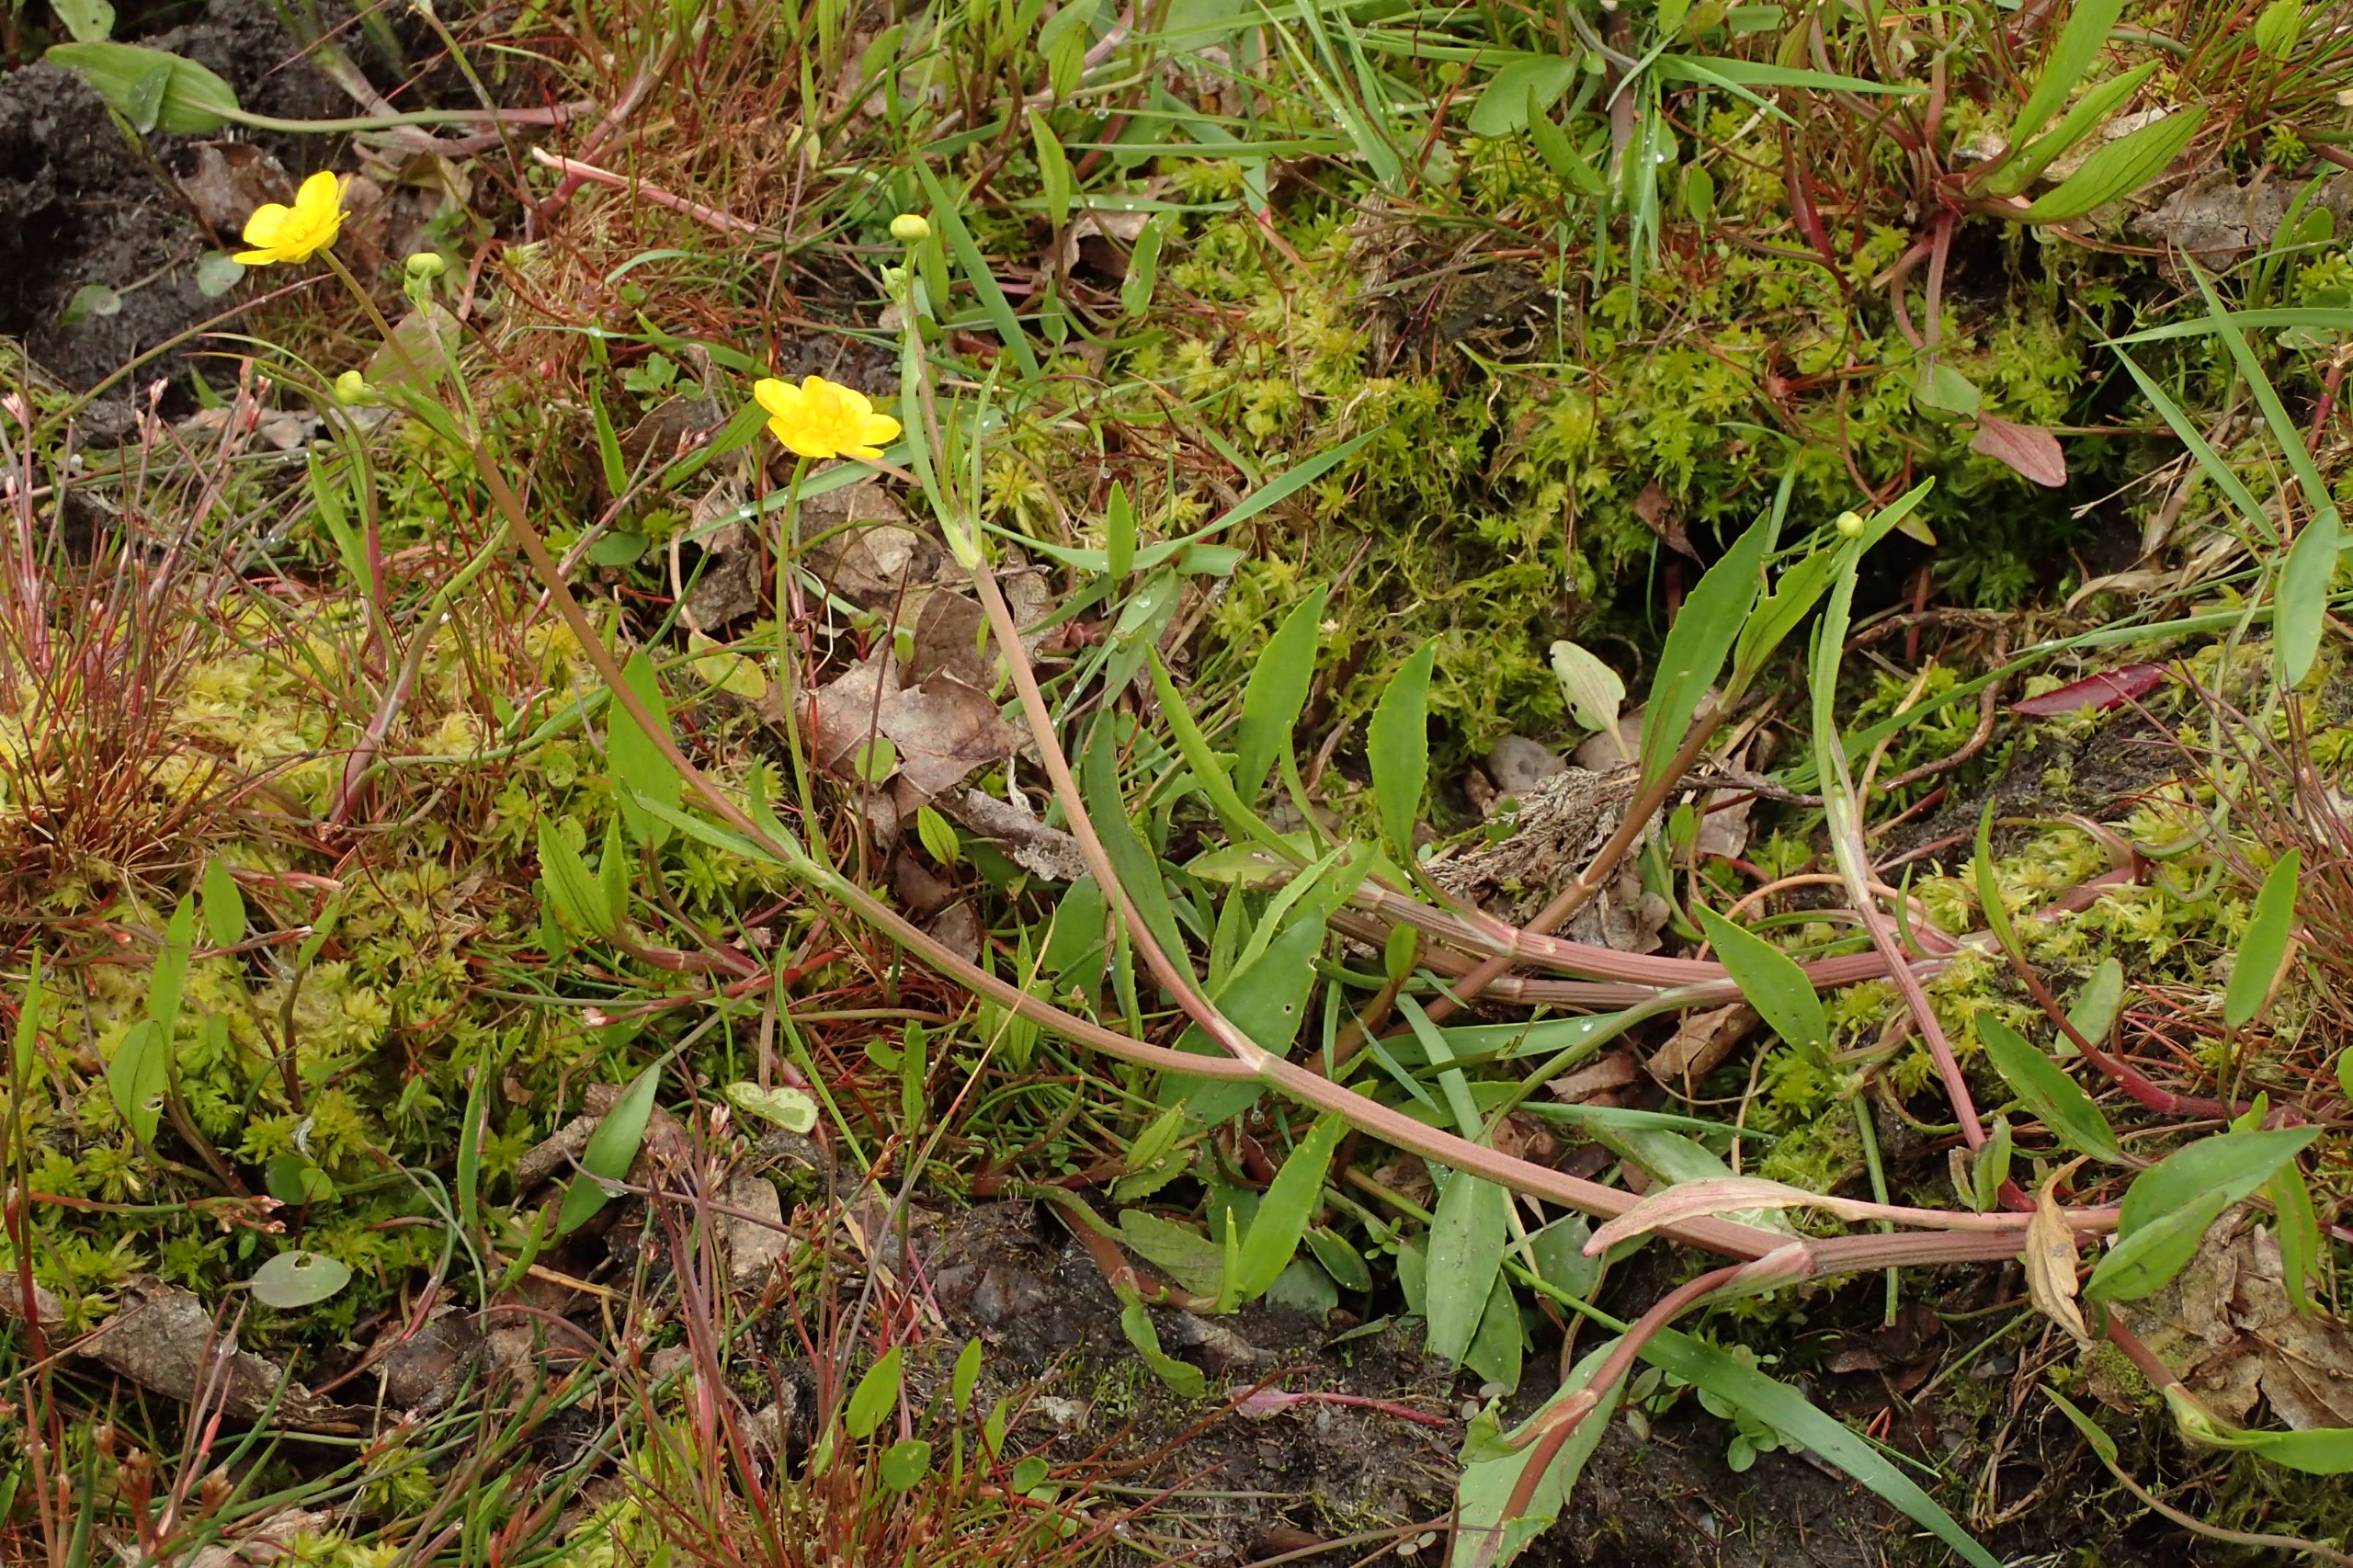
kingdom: Plantae
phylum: Tracheophyta
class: Magnoliopsida
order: Ranunculales
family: Ranunculaceae
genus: Ranunculus
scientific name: Ranunculus flammula
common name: Kær-ranunkel
